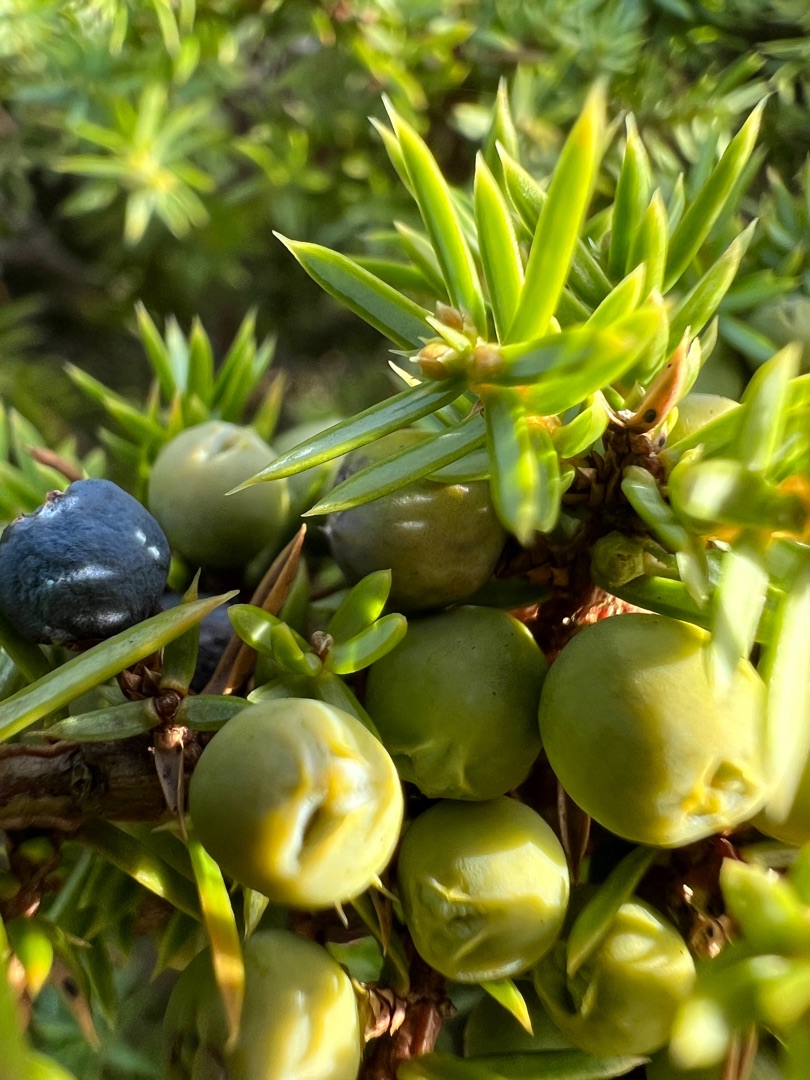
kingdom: Plantae
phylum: Tracheophyta
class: Pinopsida
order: Pinales
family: Cupressaceae
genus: Juniperus
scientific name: Juniperus communis
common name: Almindelig ene
